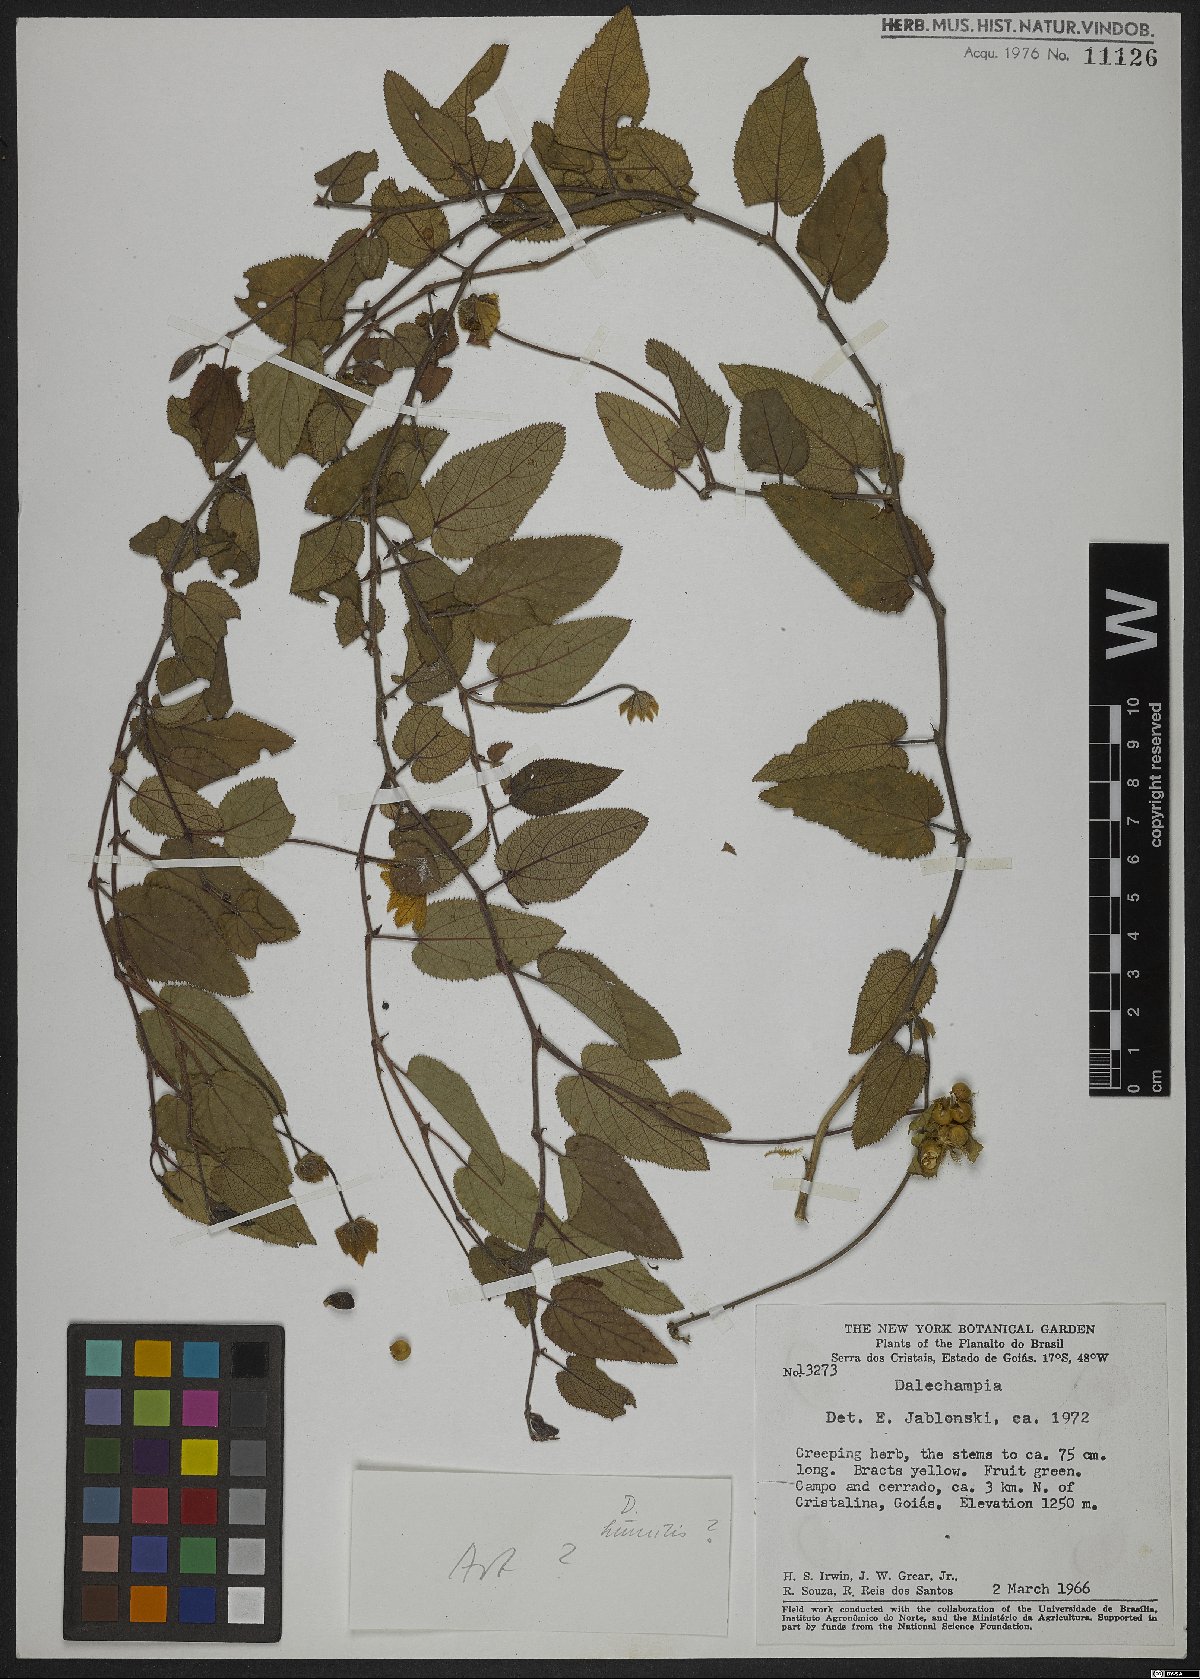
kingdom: Plantae
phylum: Tracheophyta
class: Magnoliopsida
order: Malpighiales
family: Euphorbiaceae
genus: Dalechampia
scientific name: Dalechampia
